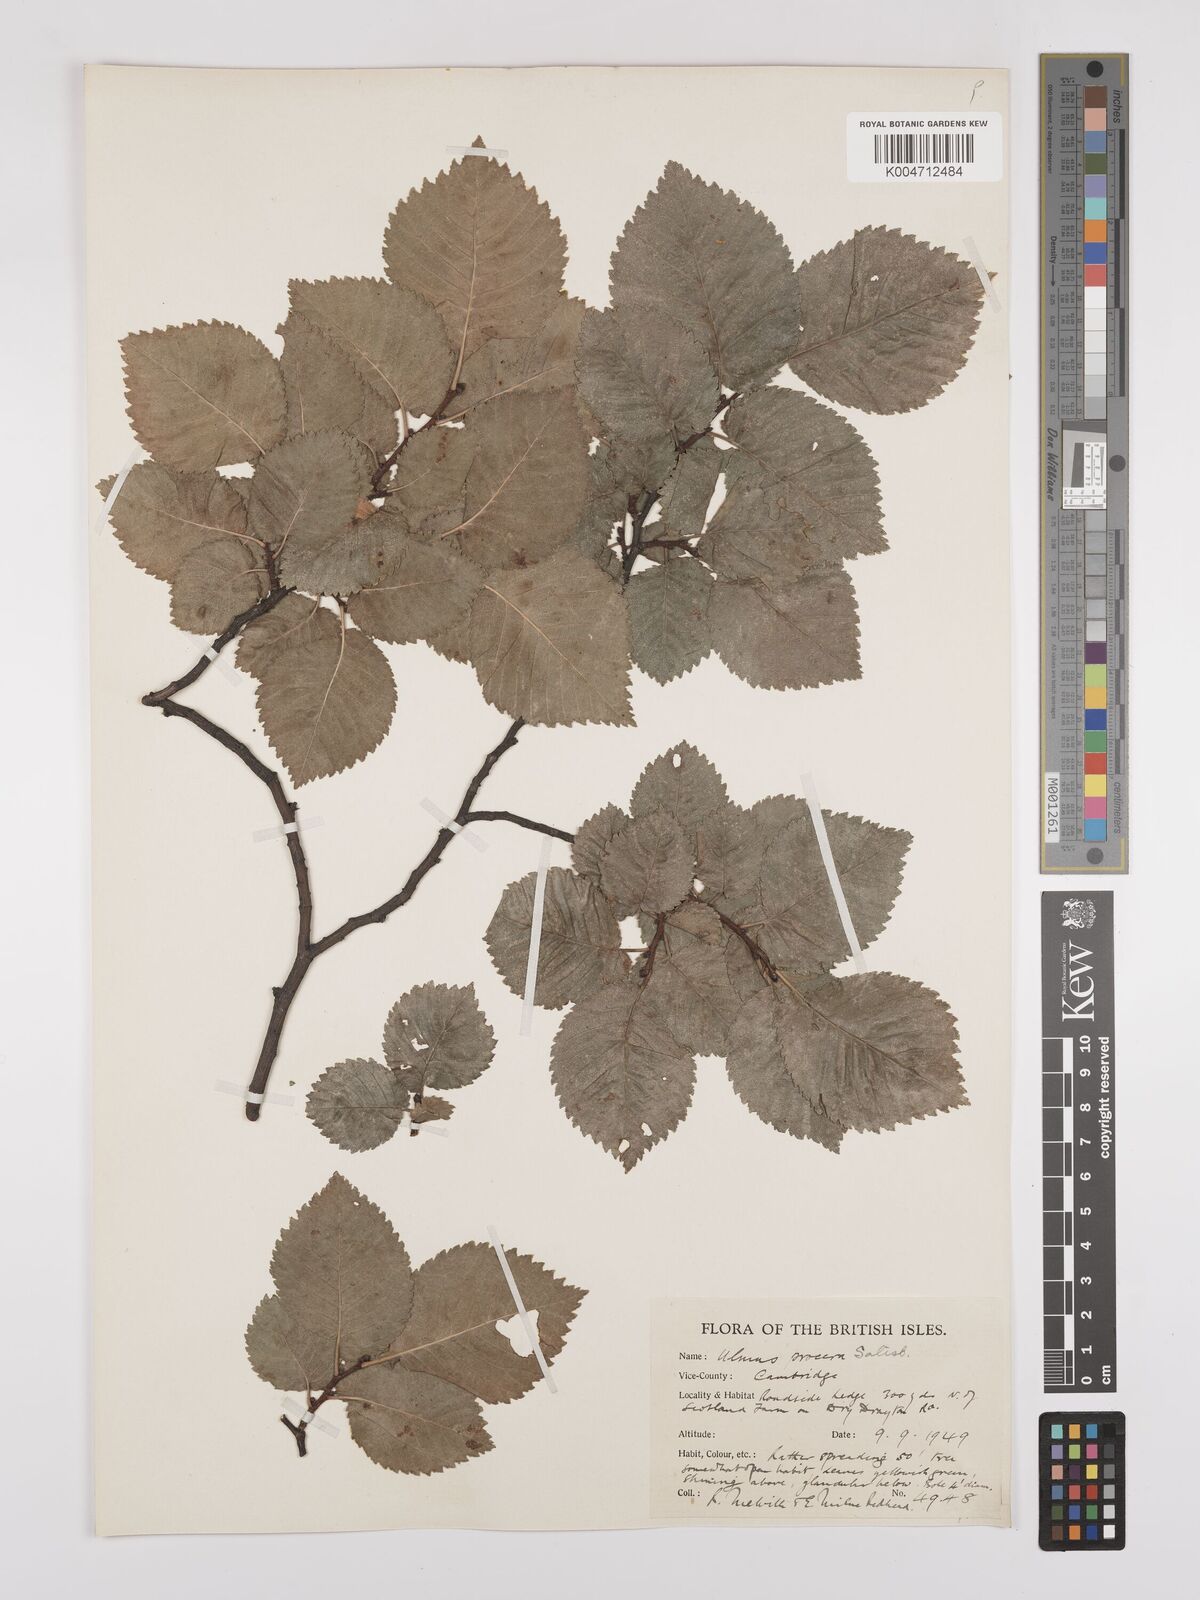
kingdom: Plantae
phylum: Tracheophyta
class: Magnoliopsida
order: Rosales
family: Ulmaceae
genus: Ulmus
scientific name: Ulmus minor
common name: Small-leaved elm
